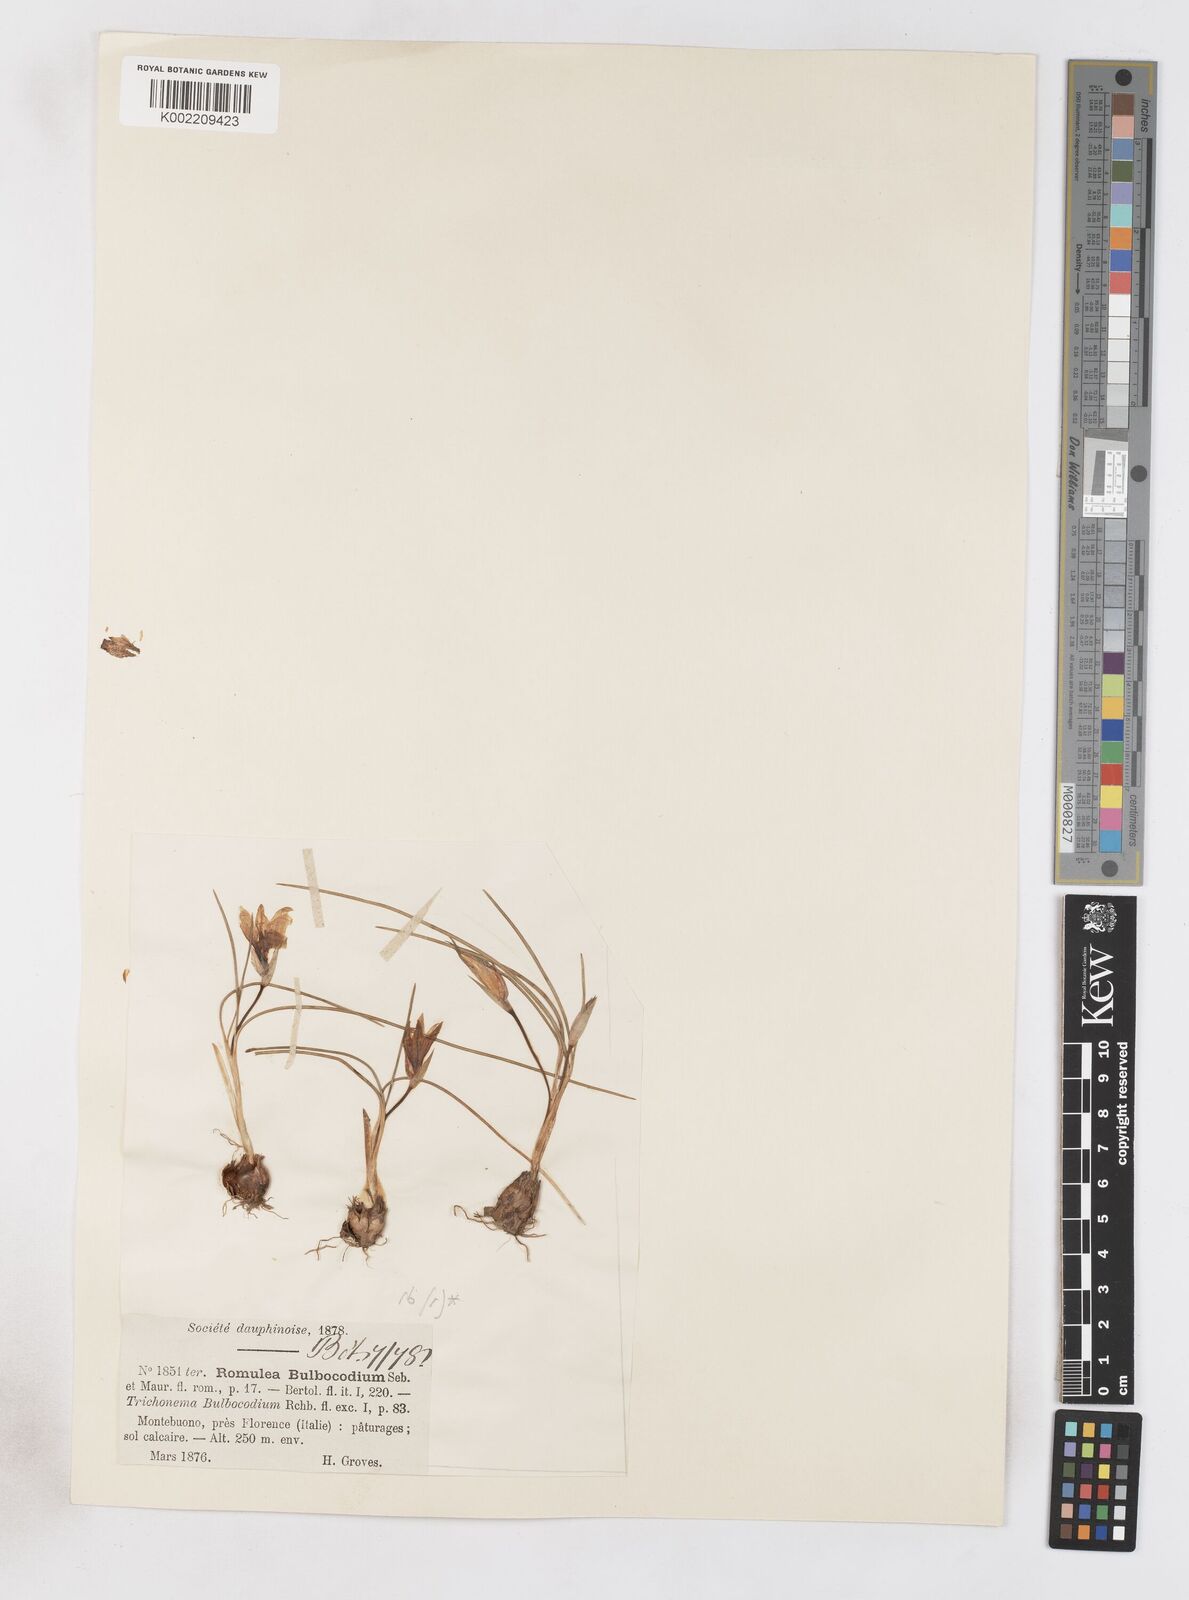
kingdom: Plantae
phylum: Tracheophyta
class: Liliopsida
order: Asparagales
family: Iridaceae
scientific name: Iridaceae
